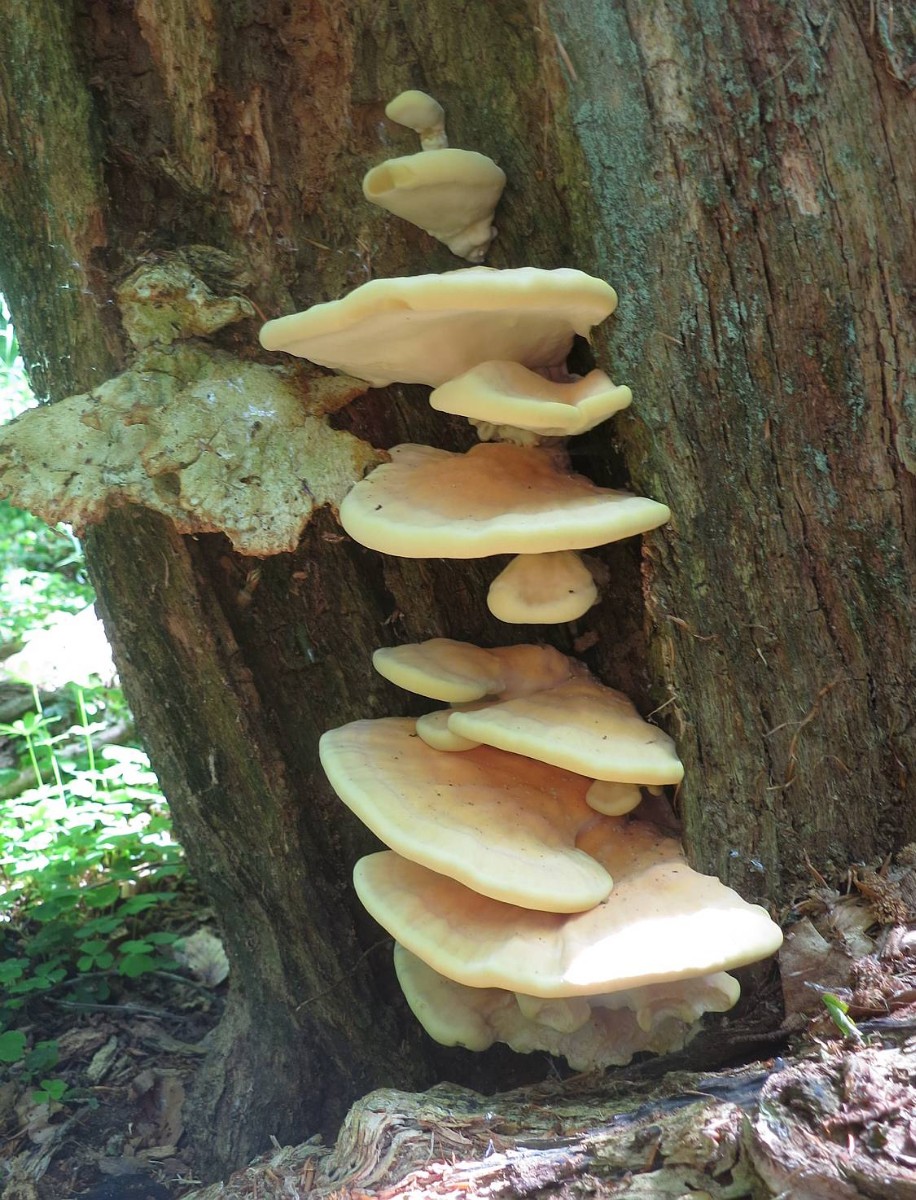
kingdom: Fungi
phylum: Basidiomycota
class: Agaricomycetes
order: Polyporales
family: Laetiporaceae
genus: Laetiporus
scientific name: Laetiporus sulphureus
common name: svovlporesvamp
